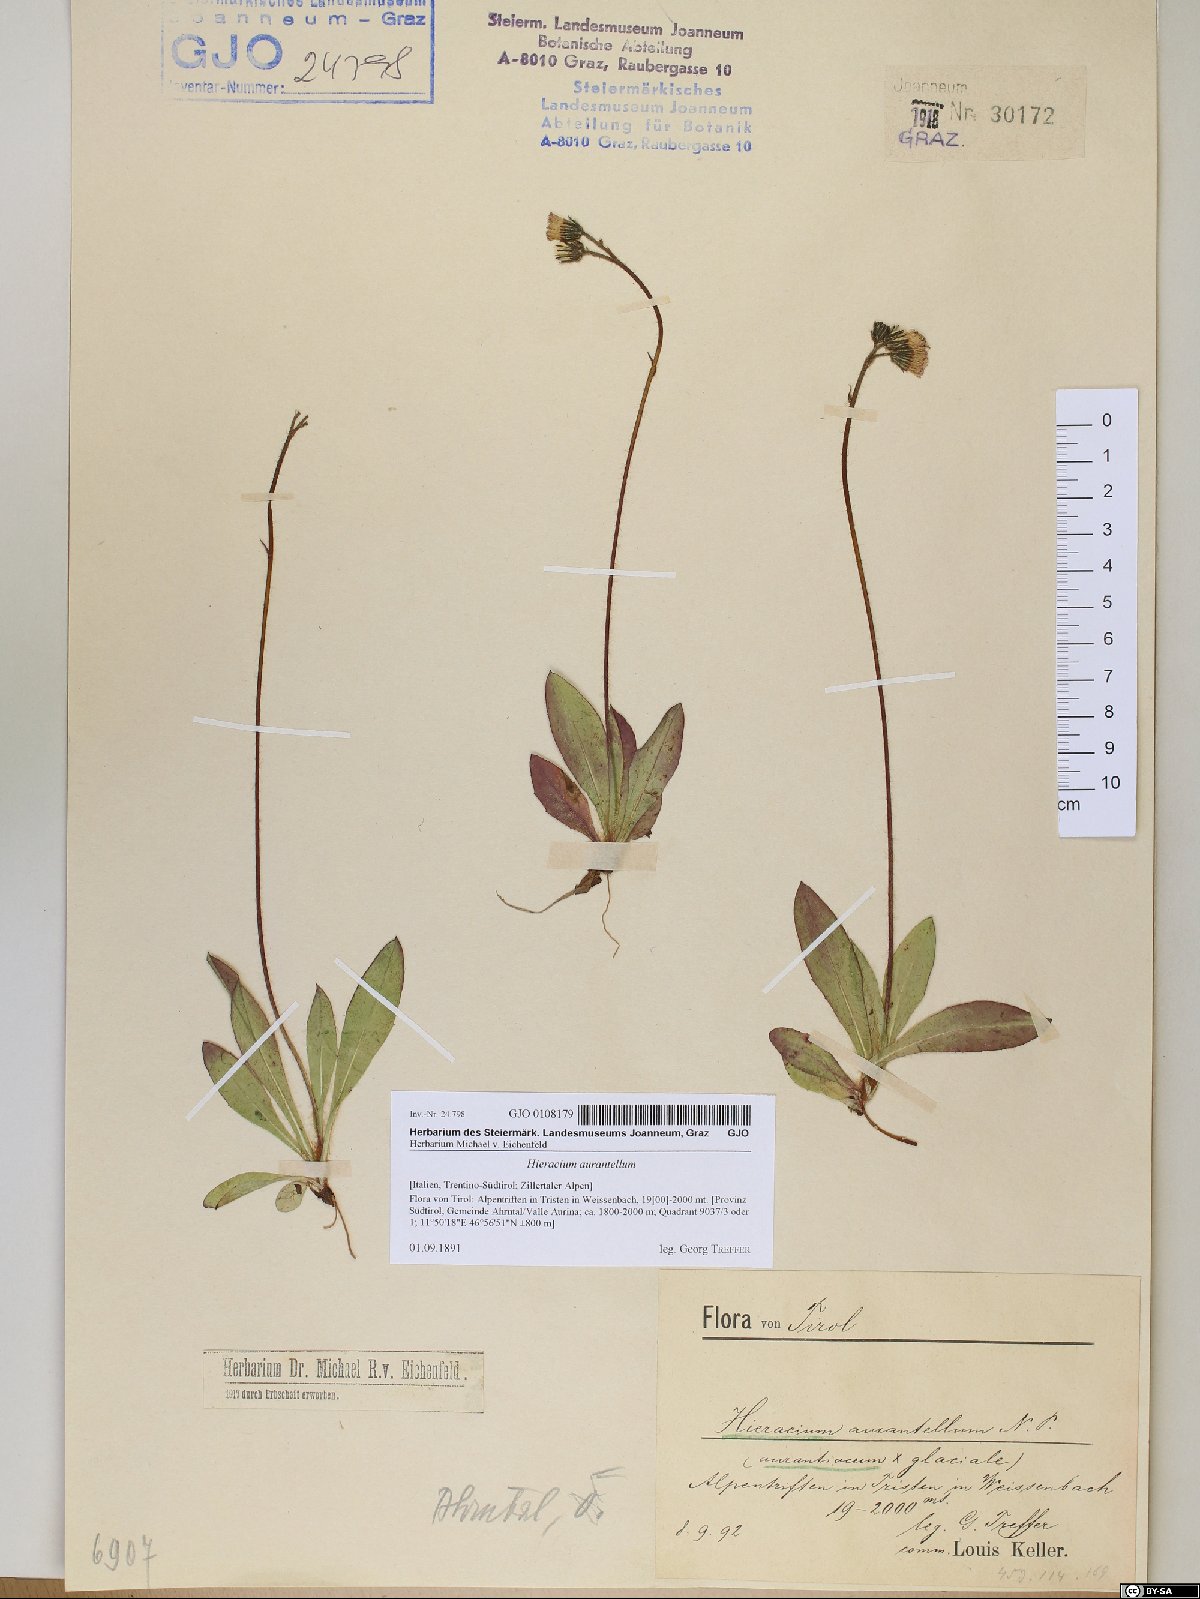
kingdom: Plantae
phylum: Tracheophyta
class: Magnoliopsida
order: Asterales
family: Asteraceae
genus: Pilosella
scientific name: Pilosella aurantella
